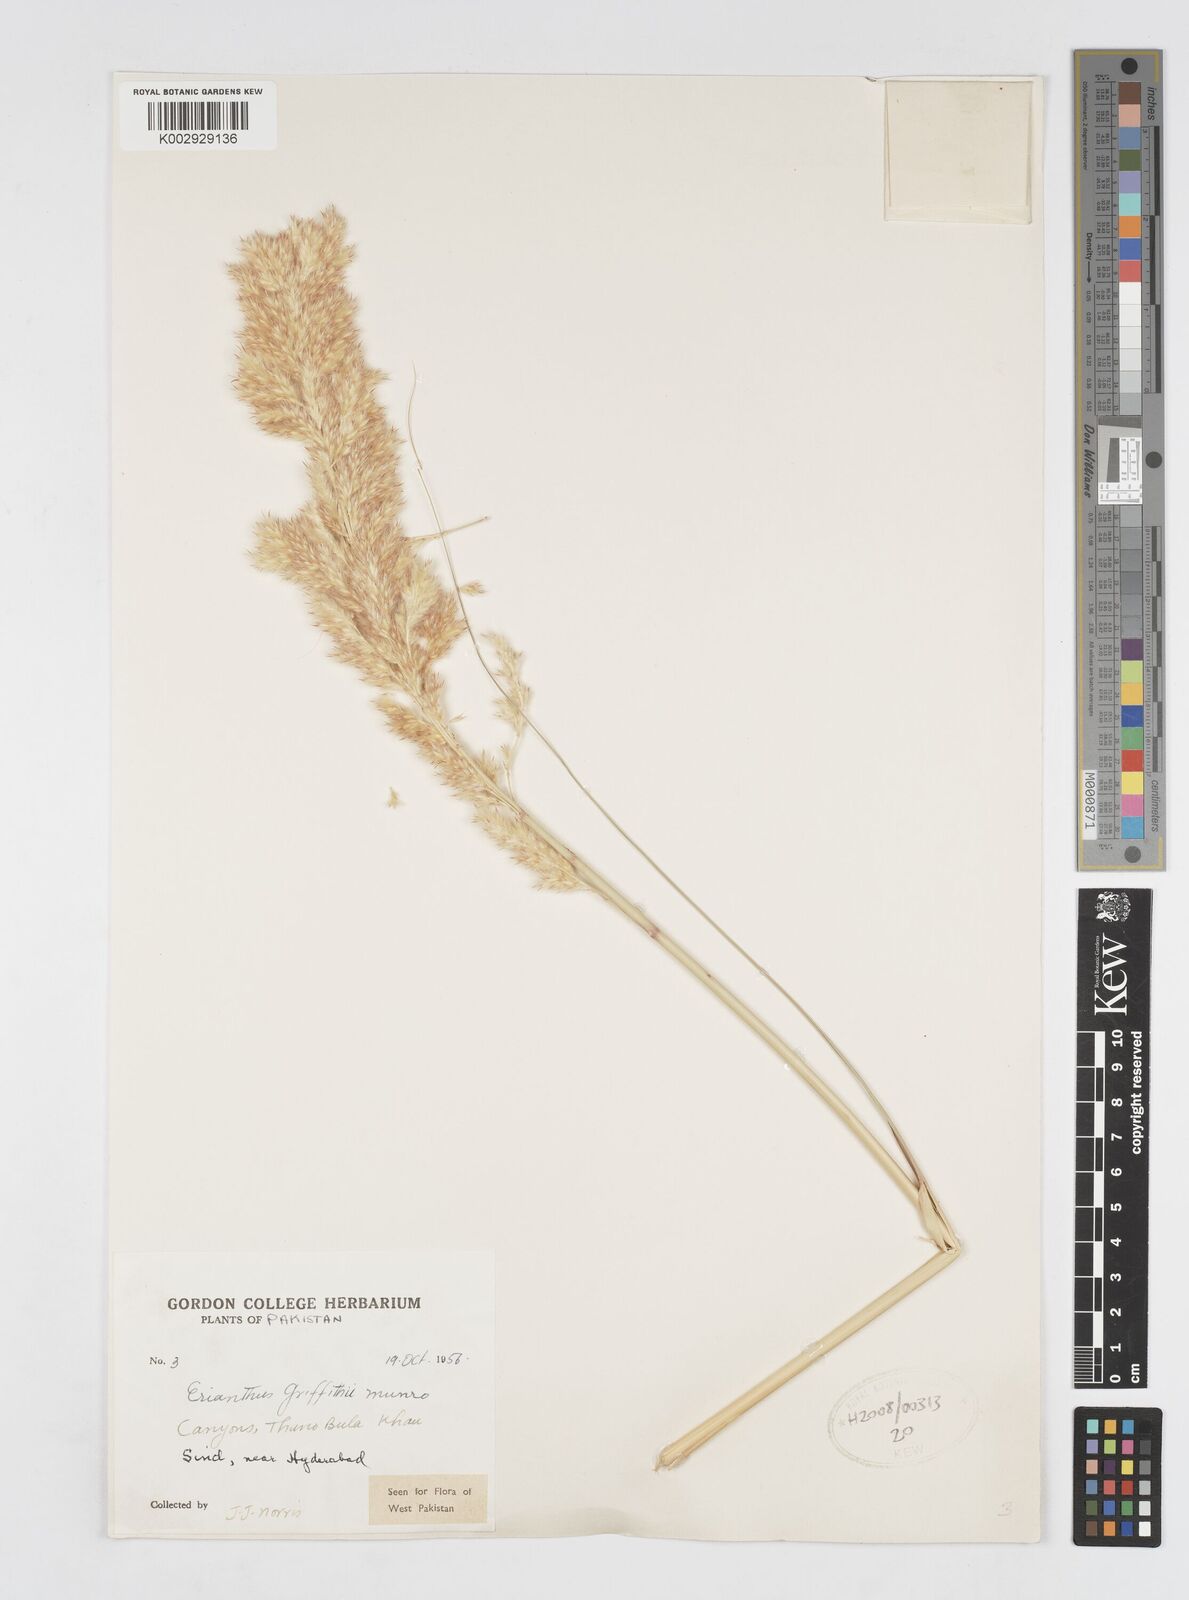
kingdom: Plantae
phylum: Tracheophyta
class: Liliopsida
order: Poales
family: Poaceae
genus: Saccharum
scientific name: Saccharum griffithii
